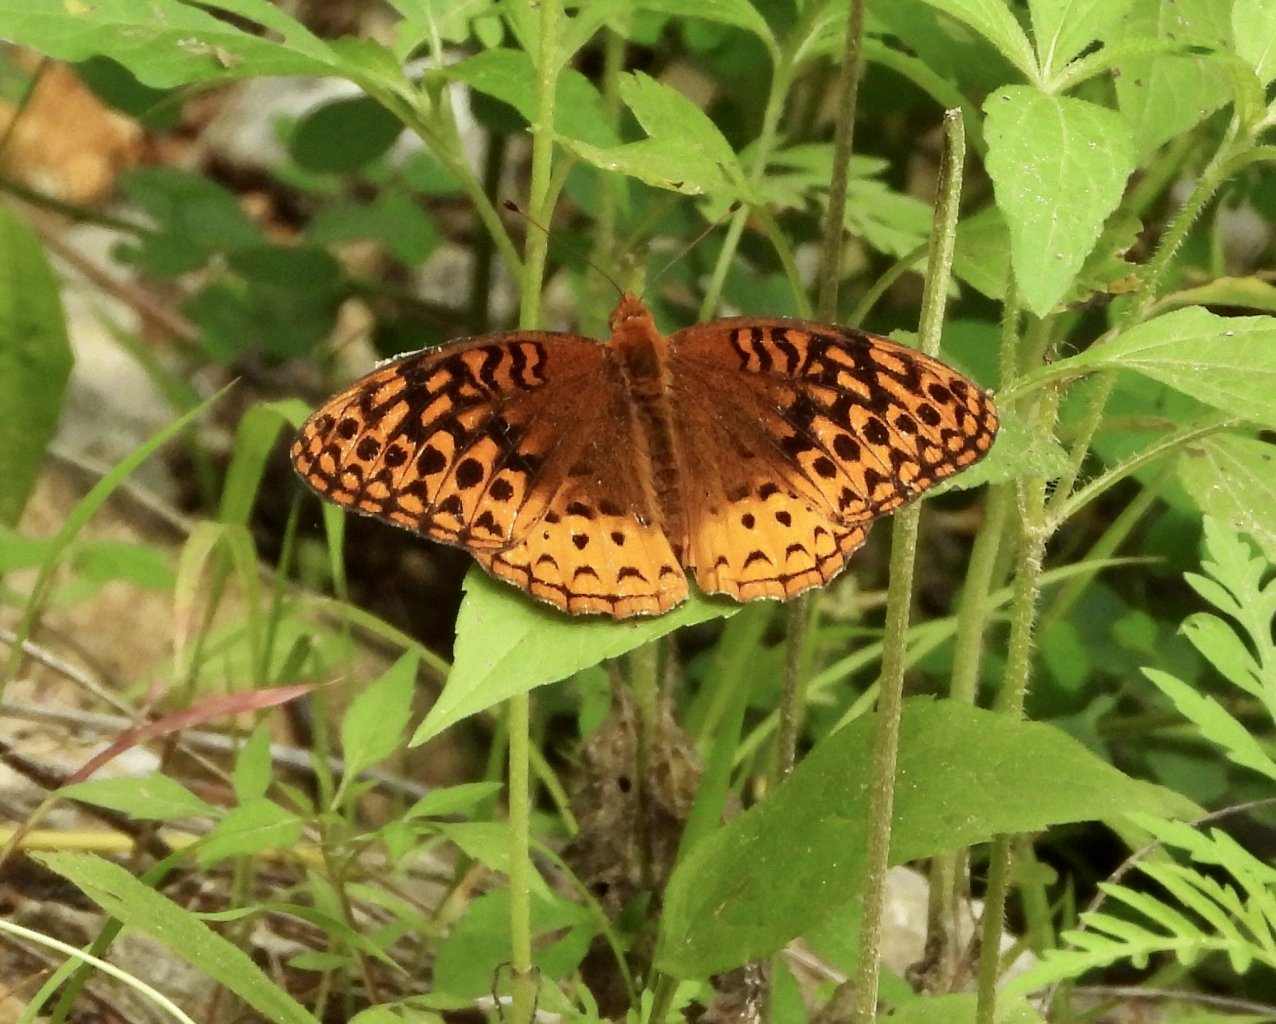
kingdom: Animalia
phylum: Arthropoda
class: Insecta
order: Lepidoptera
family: Nymphalidae
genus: Speyeria
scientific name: Speyeria cybele
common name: Great Spangled Fritillary
